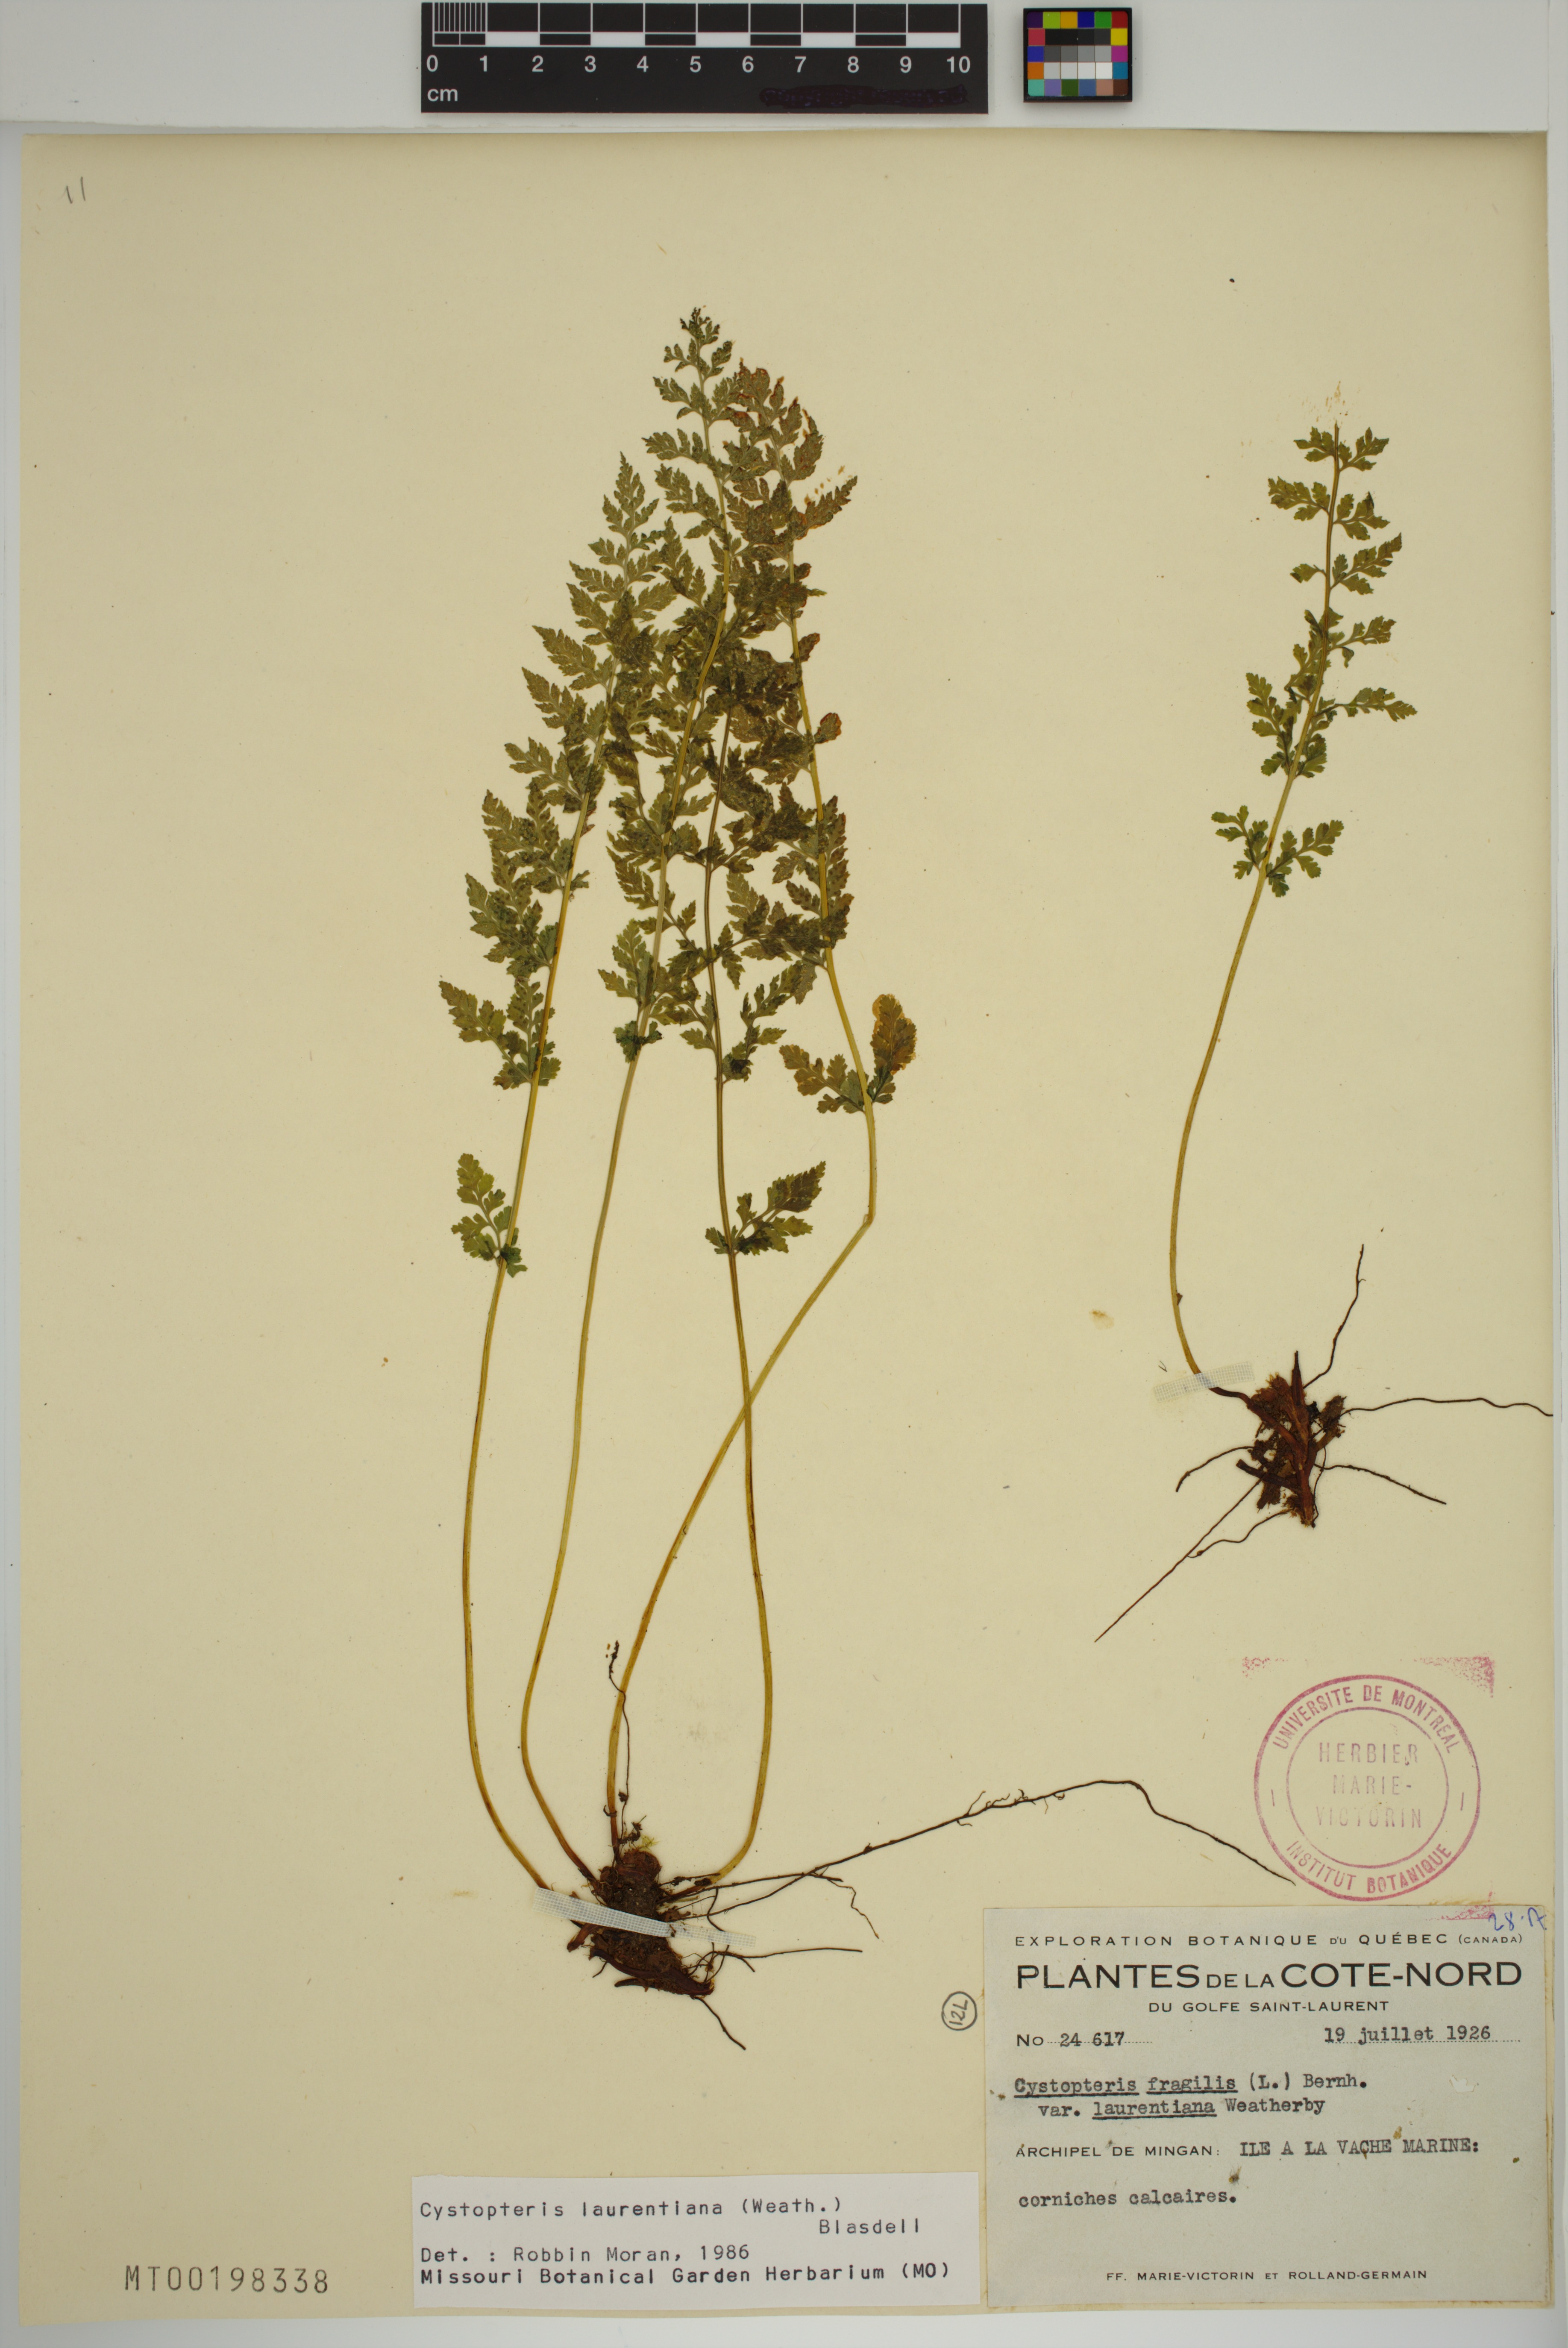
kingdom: Plantae
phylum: Tracheophyta
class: Polypodiopsida
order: Polypodiales
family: Cystopteridaceae
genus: Cystopteris
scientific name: Cystopteris laurentiana
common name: Blasdell's laurentian bladder fern
